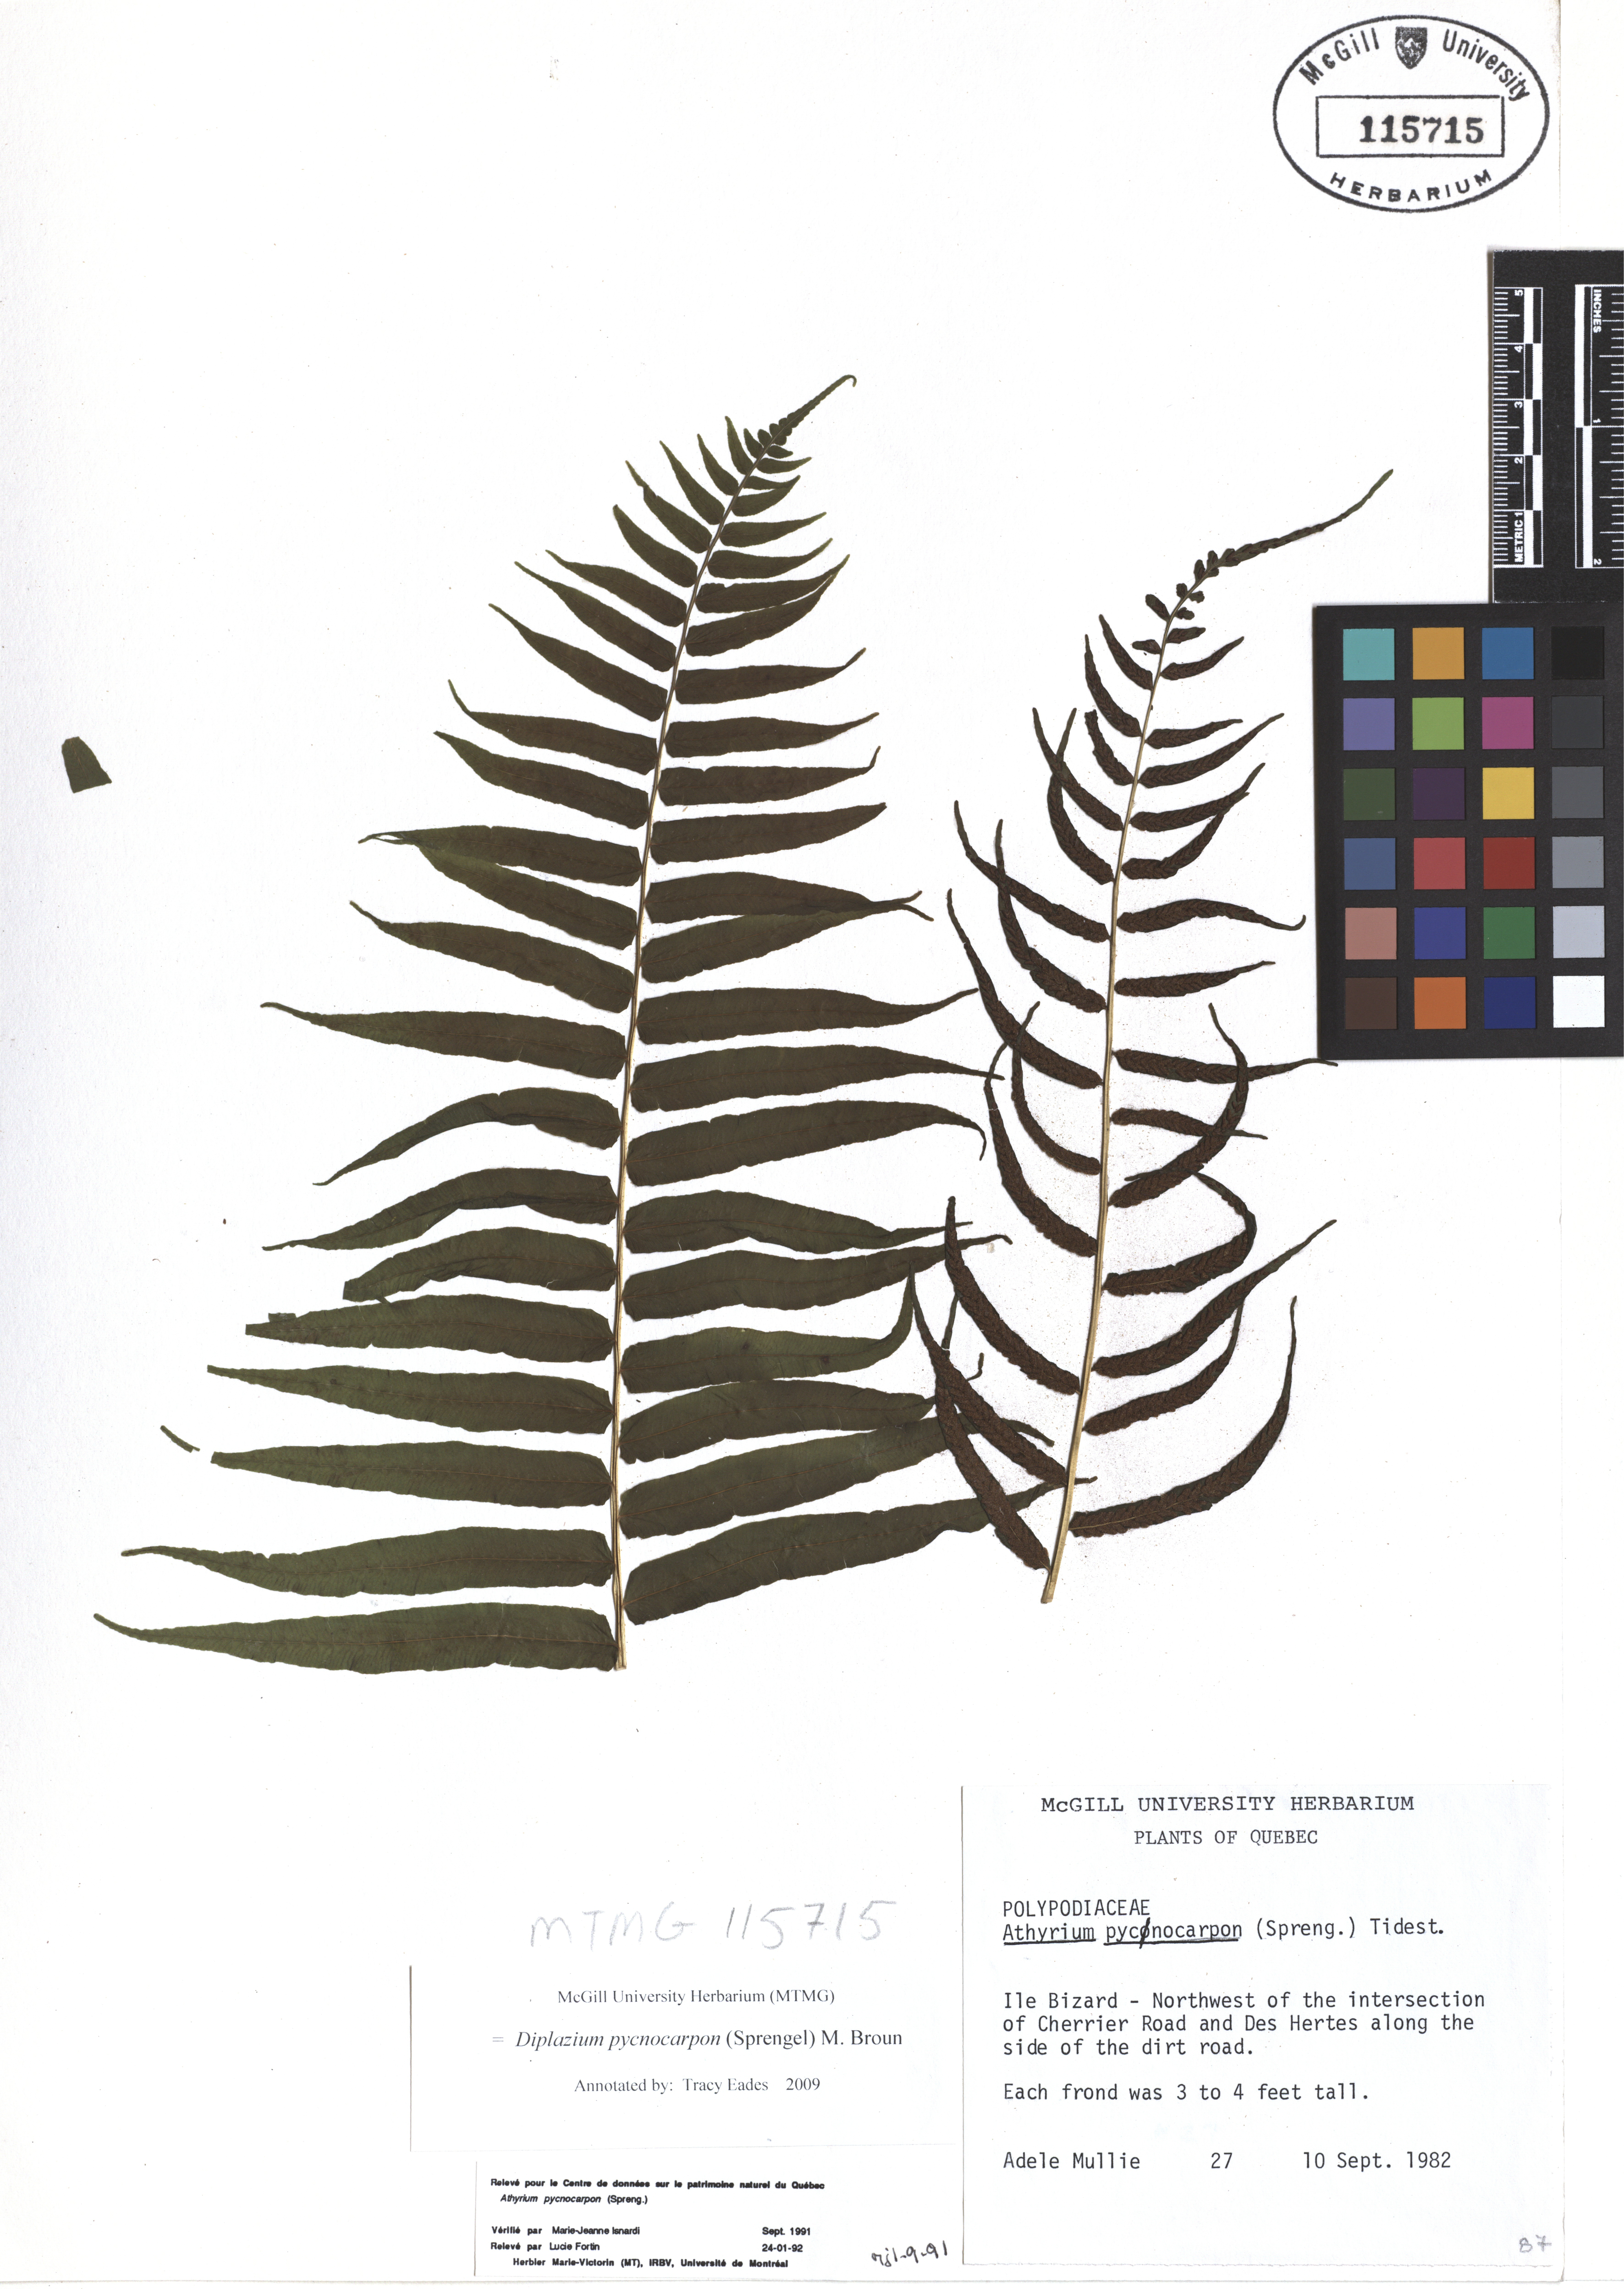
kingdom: Plantae
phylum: Tracheophyta
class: Polypodiopsida
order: Polypodiales
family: Diplaziopsidaceae
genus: Homalosorus
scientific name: Homalosorus pycnocarpos
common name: Glade fern
